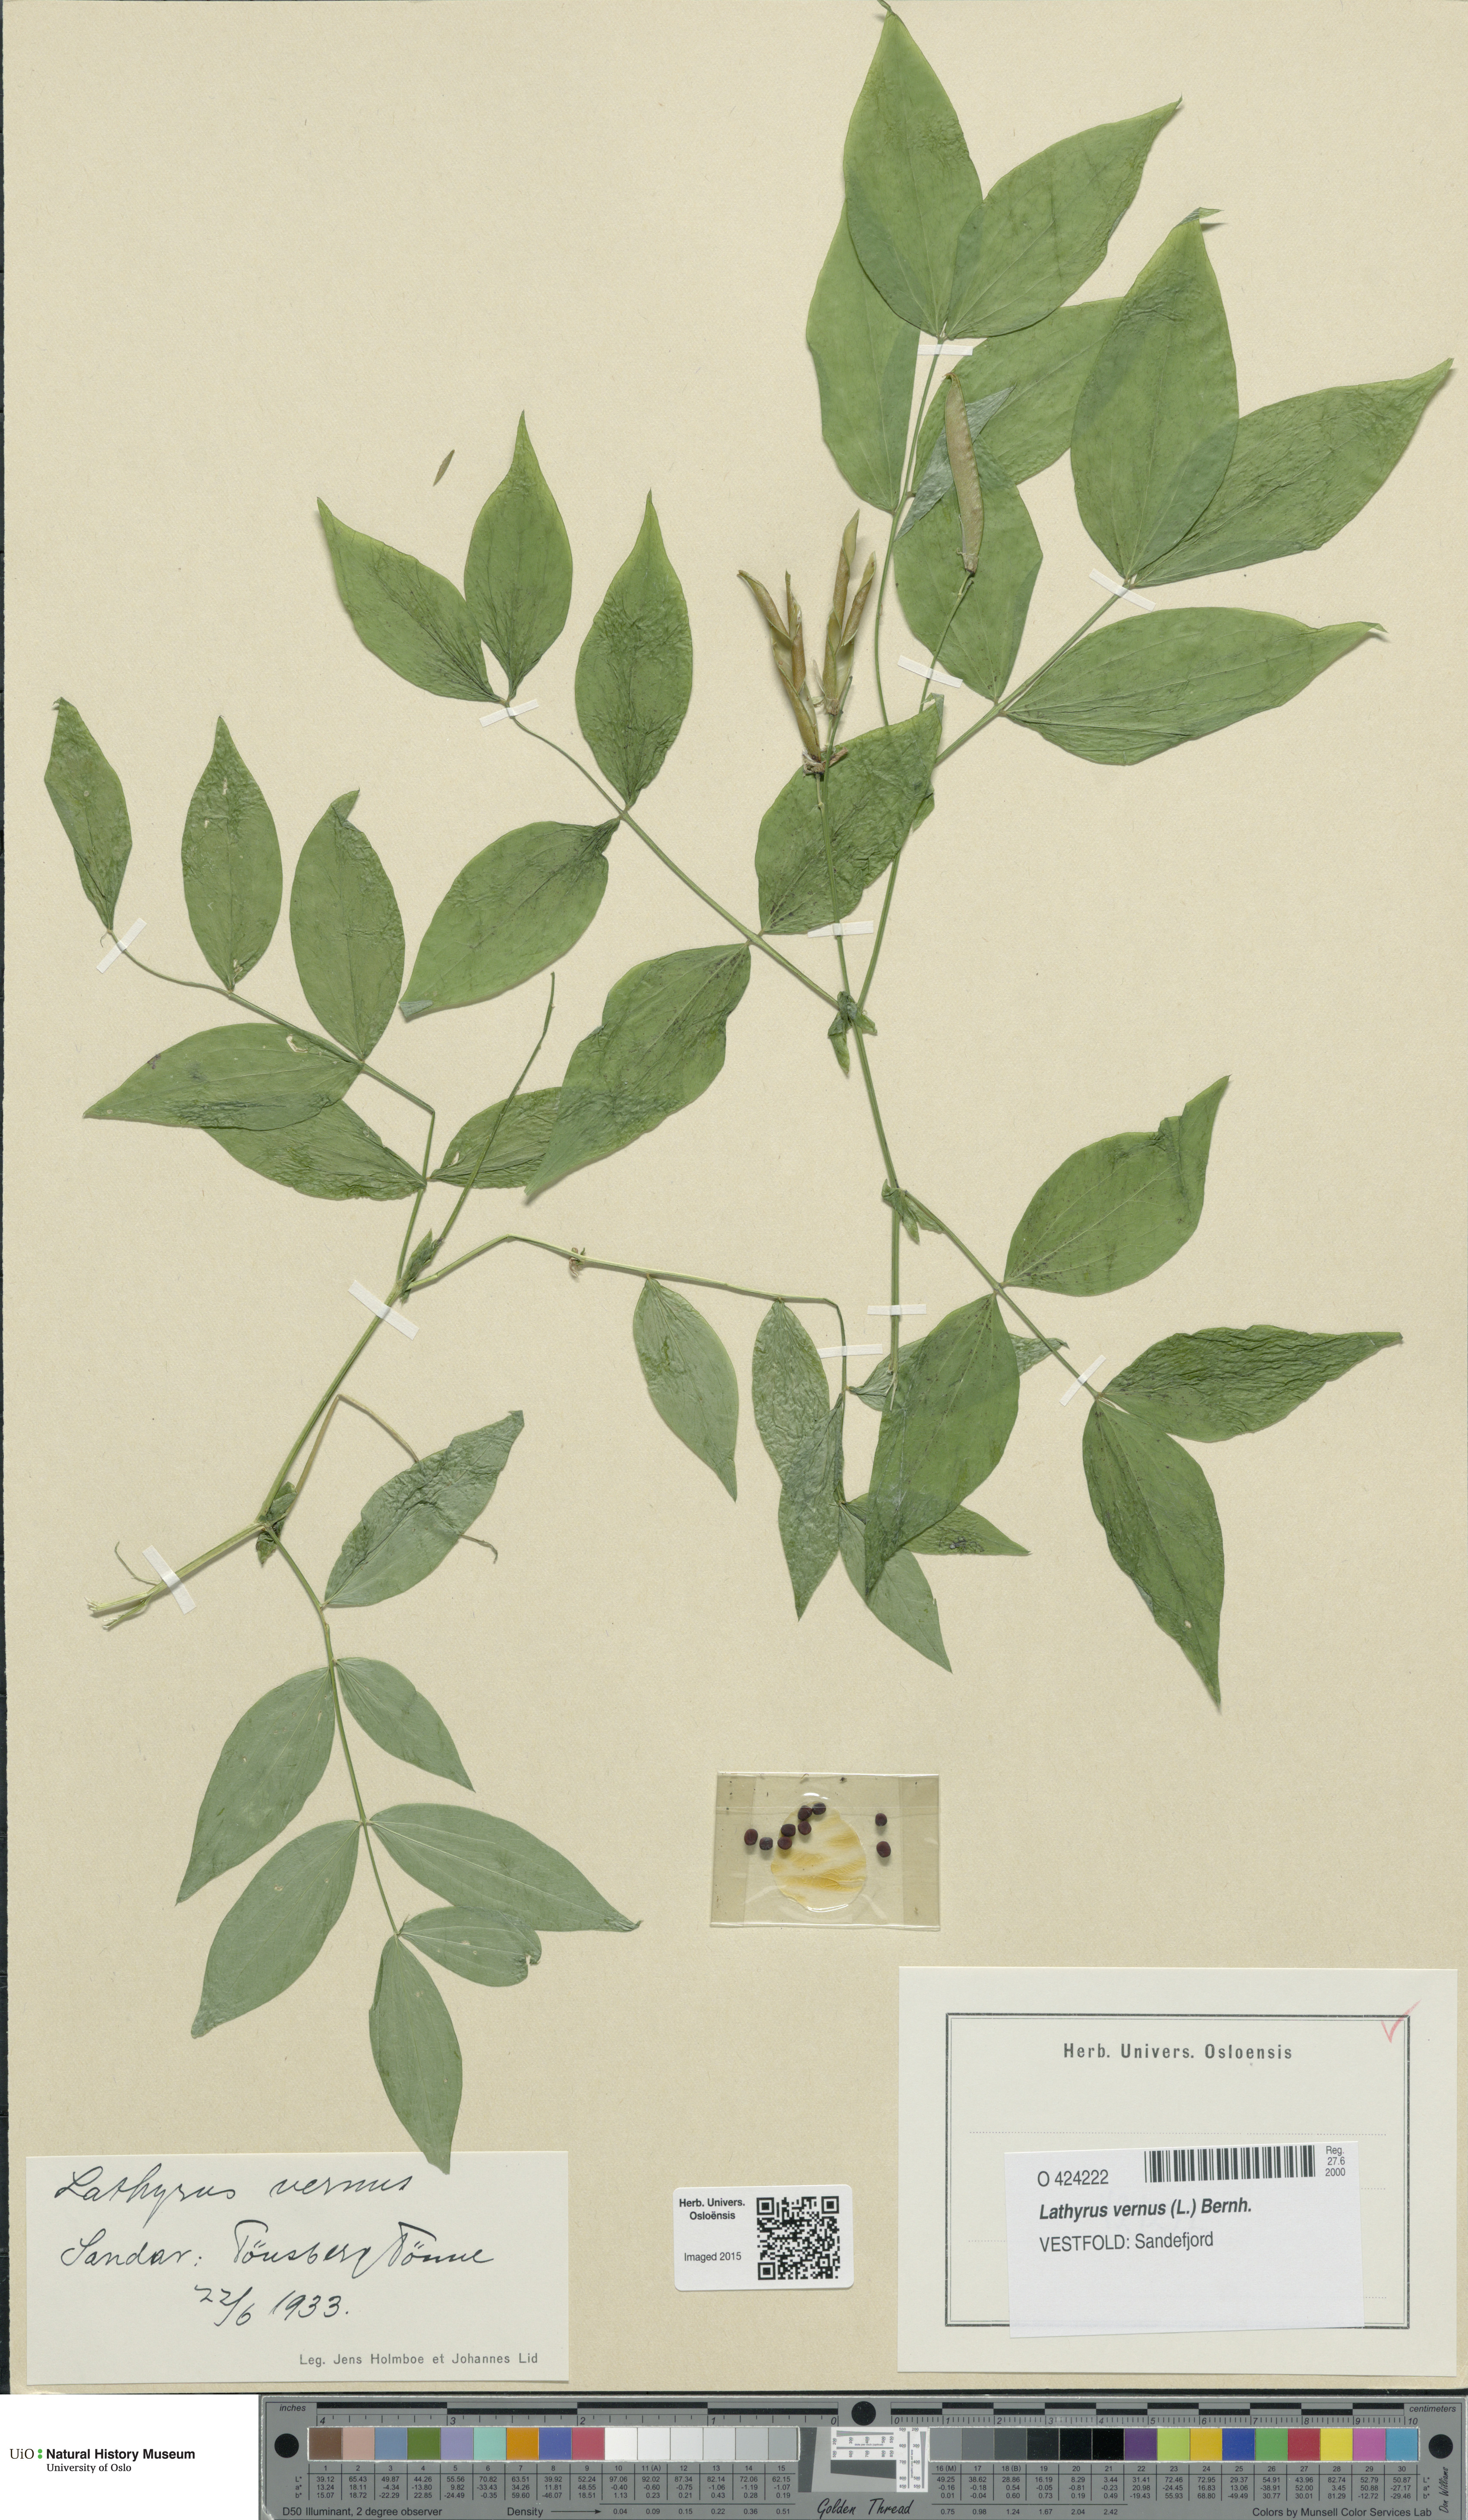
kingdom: Plantae
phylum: Tracheophyta
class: Magnoliopsida
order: Fabales
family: Fabaceae
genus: Lathyrus
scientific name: Lathyrus vernus
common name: Spring pea
